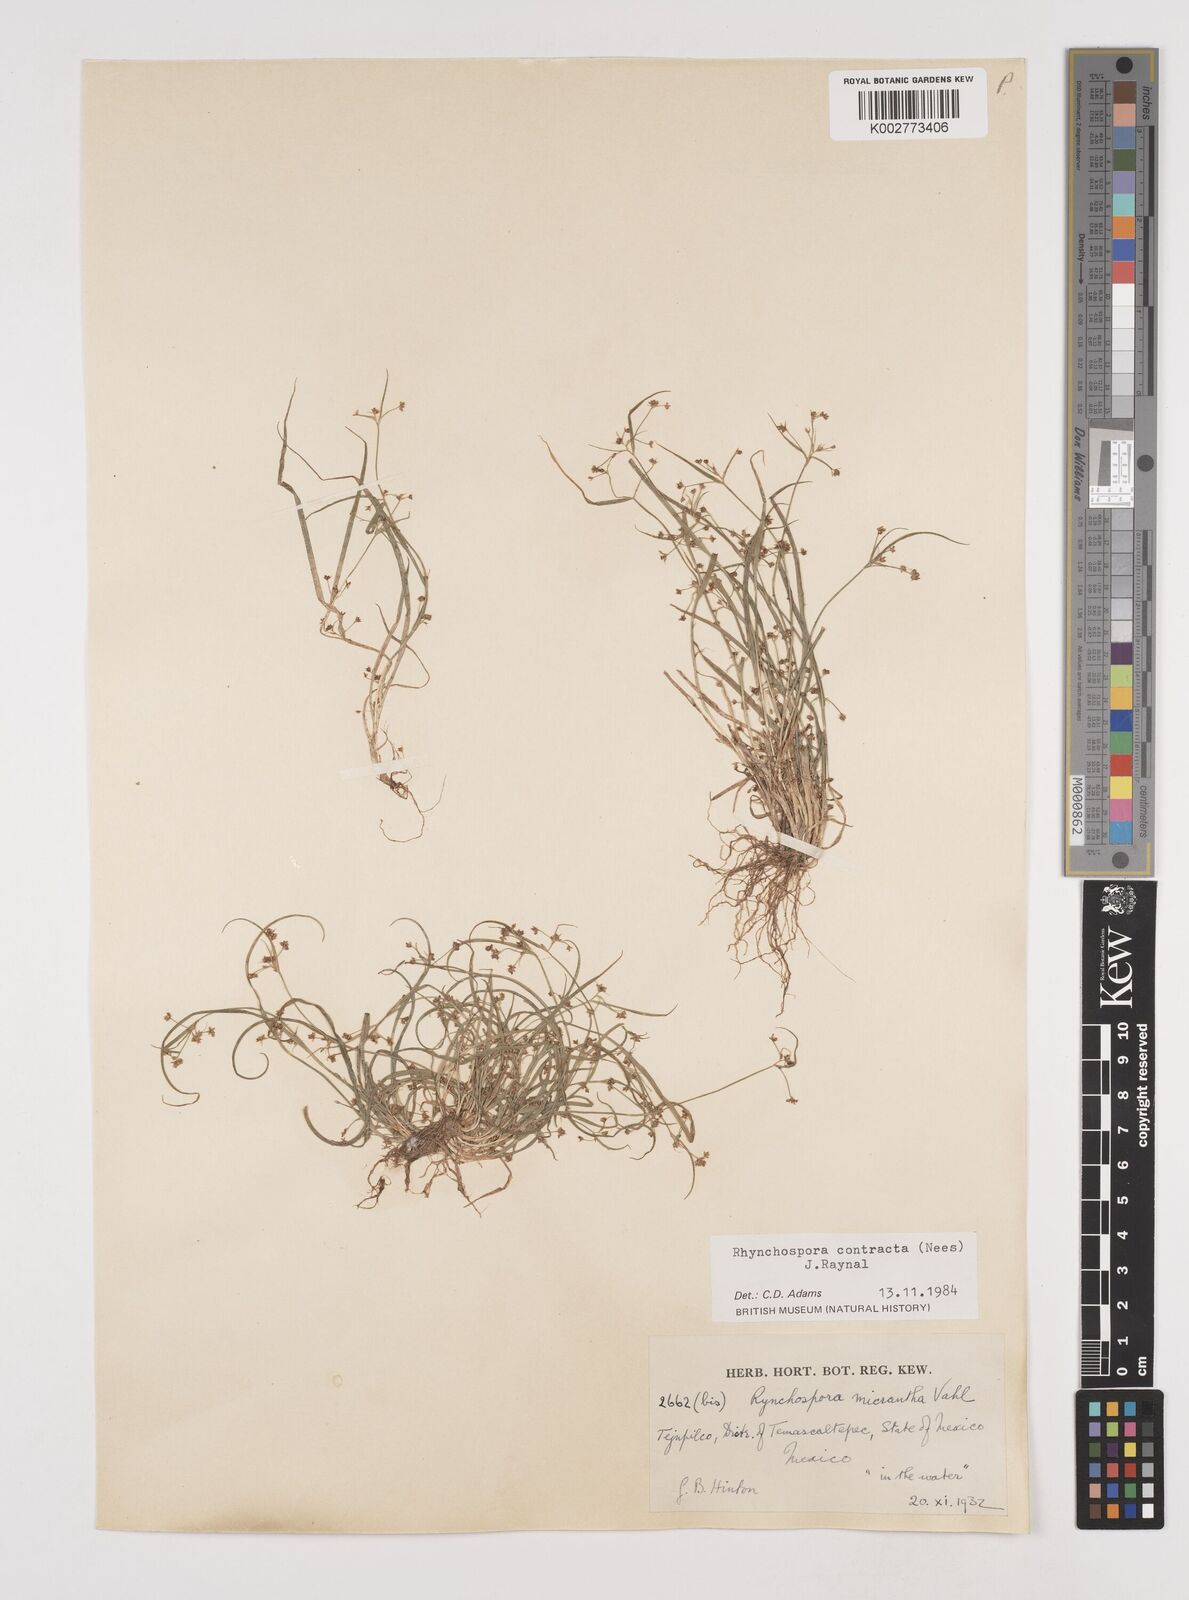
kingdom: Plantae
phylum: Tracheophyta
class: Liliopsida
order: Poales
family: Cyperaceae
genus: Rhynchospora
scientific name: Rhynchospora contracta
